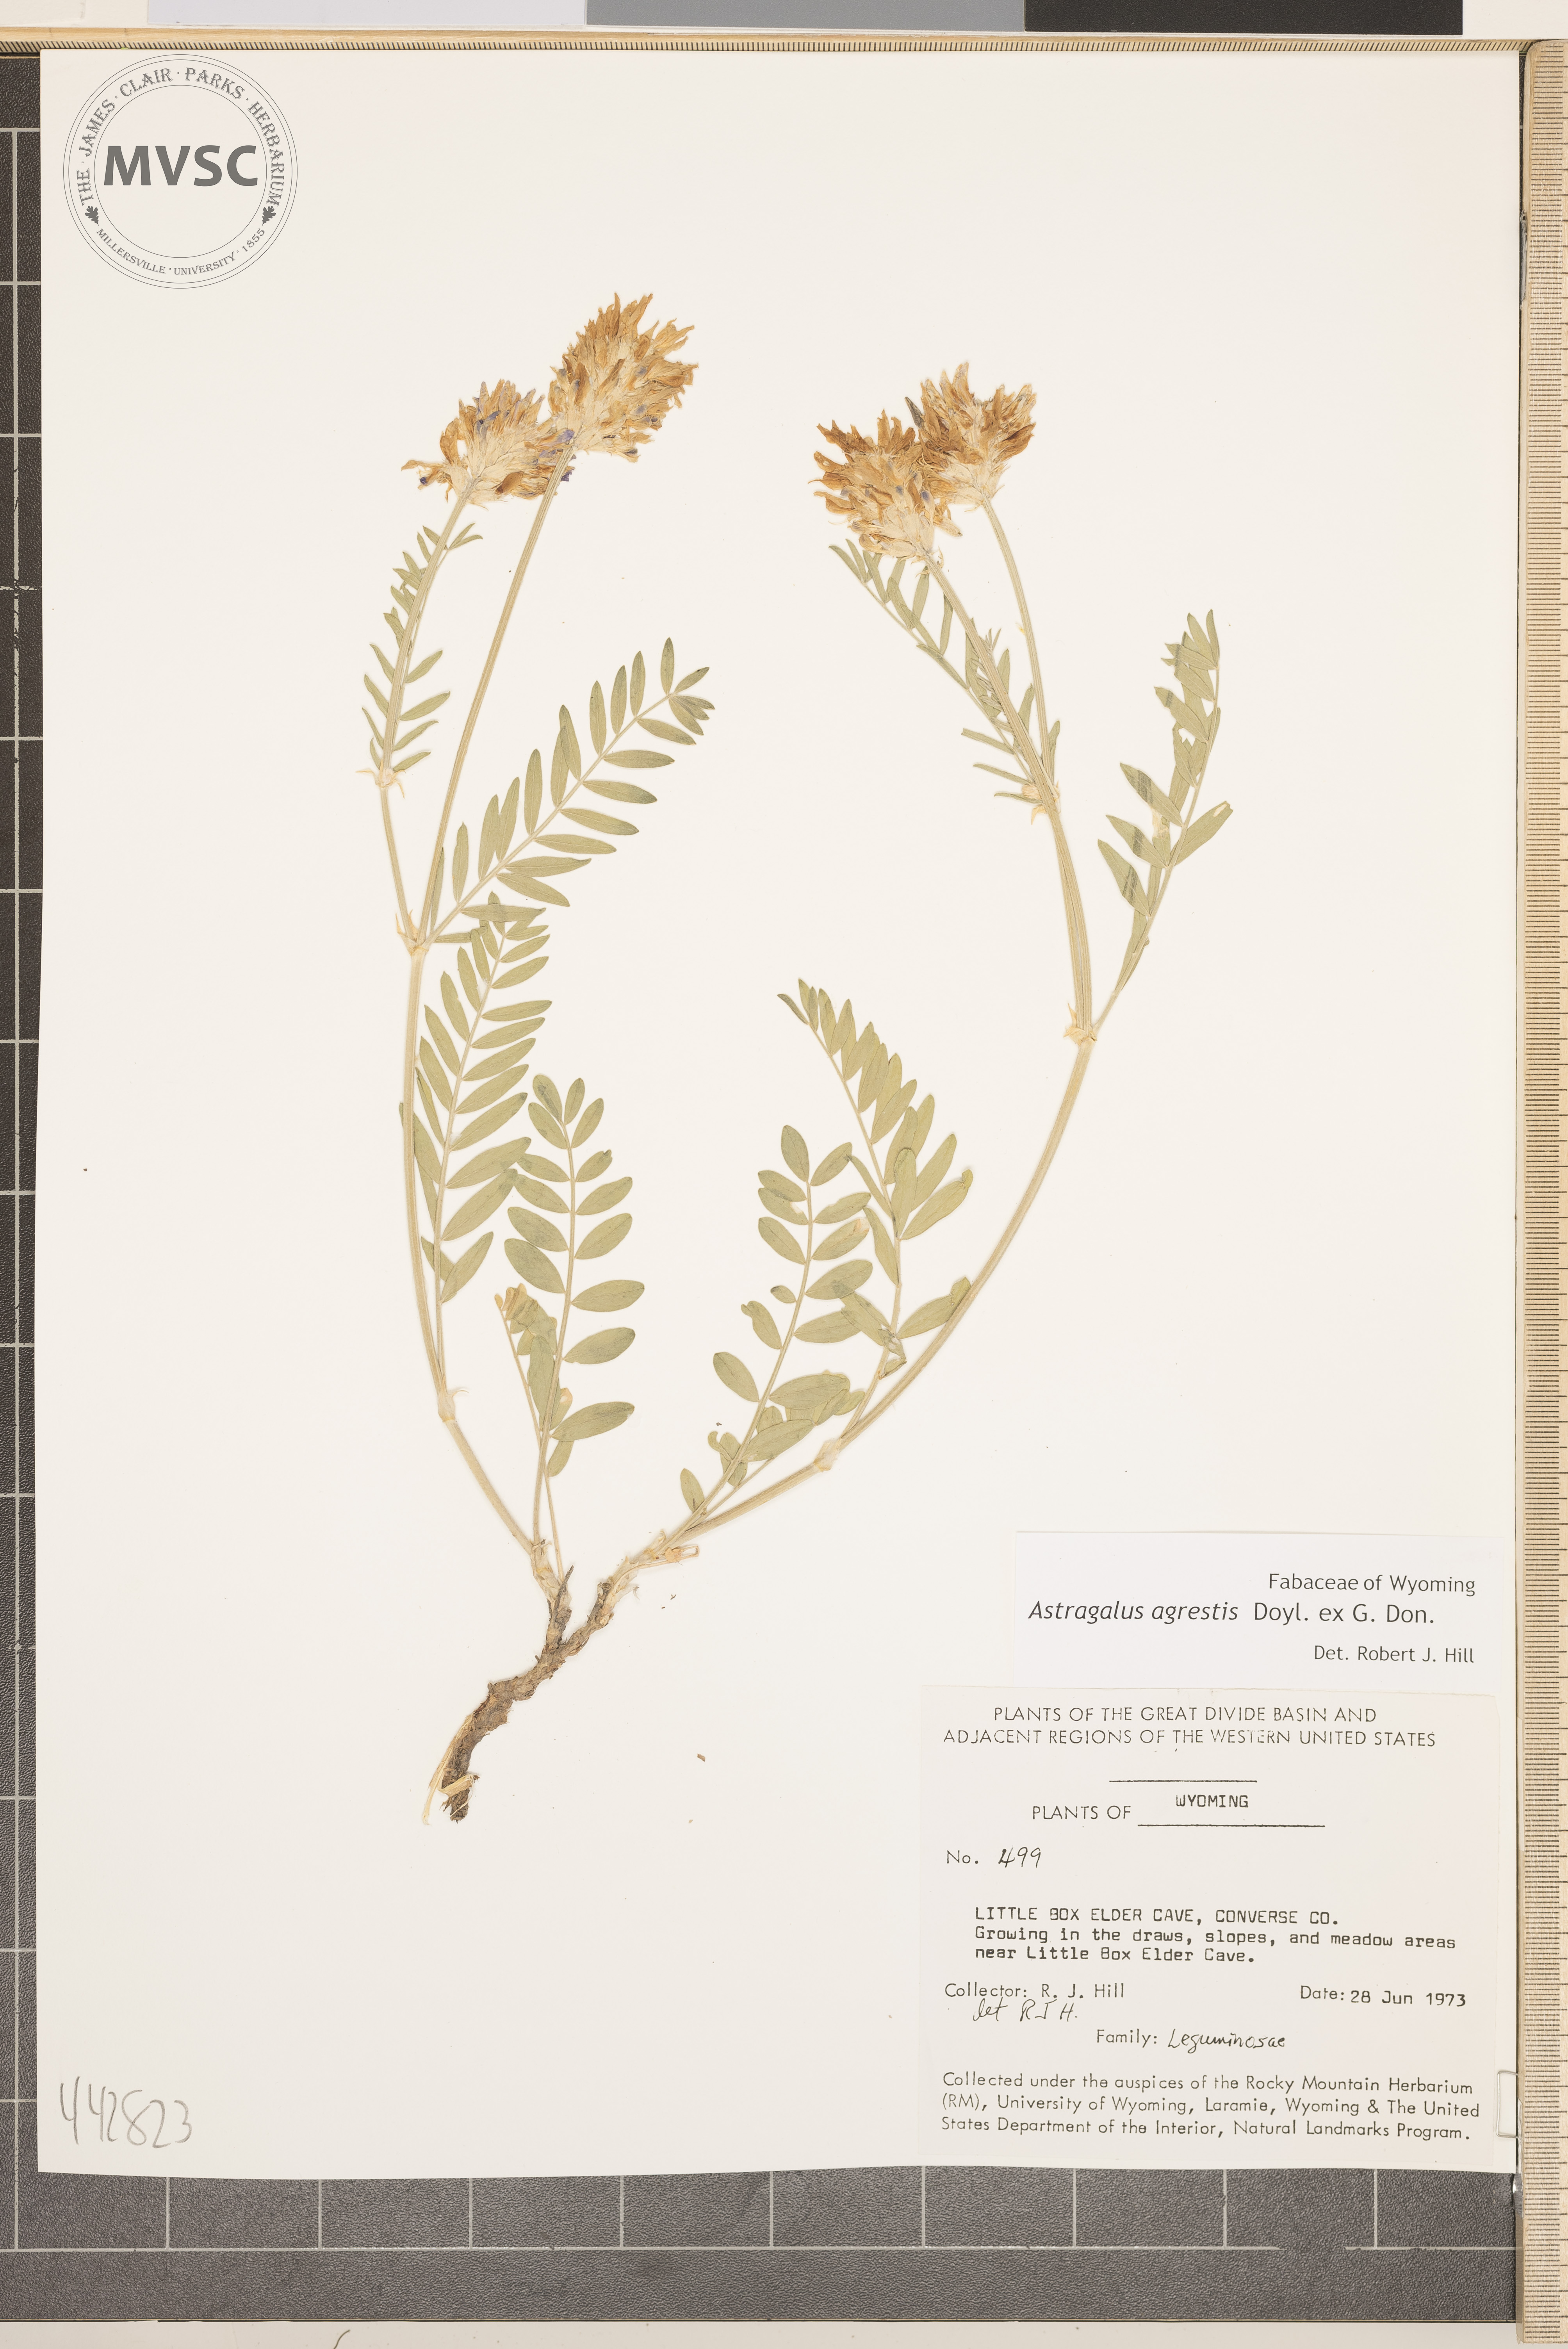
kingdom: Plantae
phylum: Tracheophyta
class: Magnoliopsida
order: Fabales
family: Fabaceae
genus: Astragalus
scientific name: Astragalus agrestis
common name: Field milk-vetch
